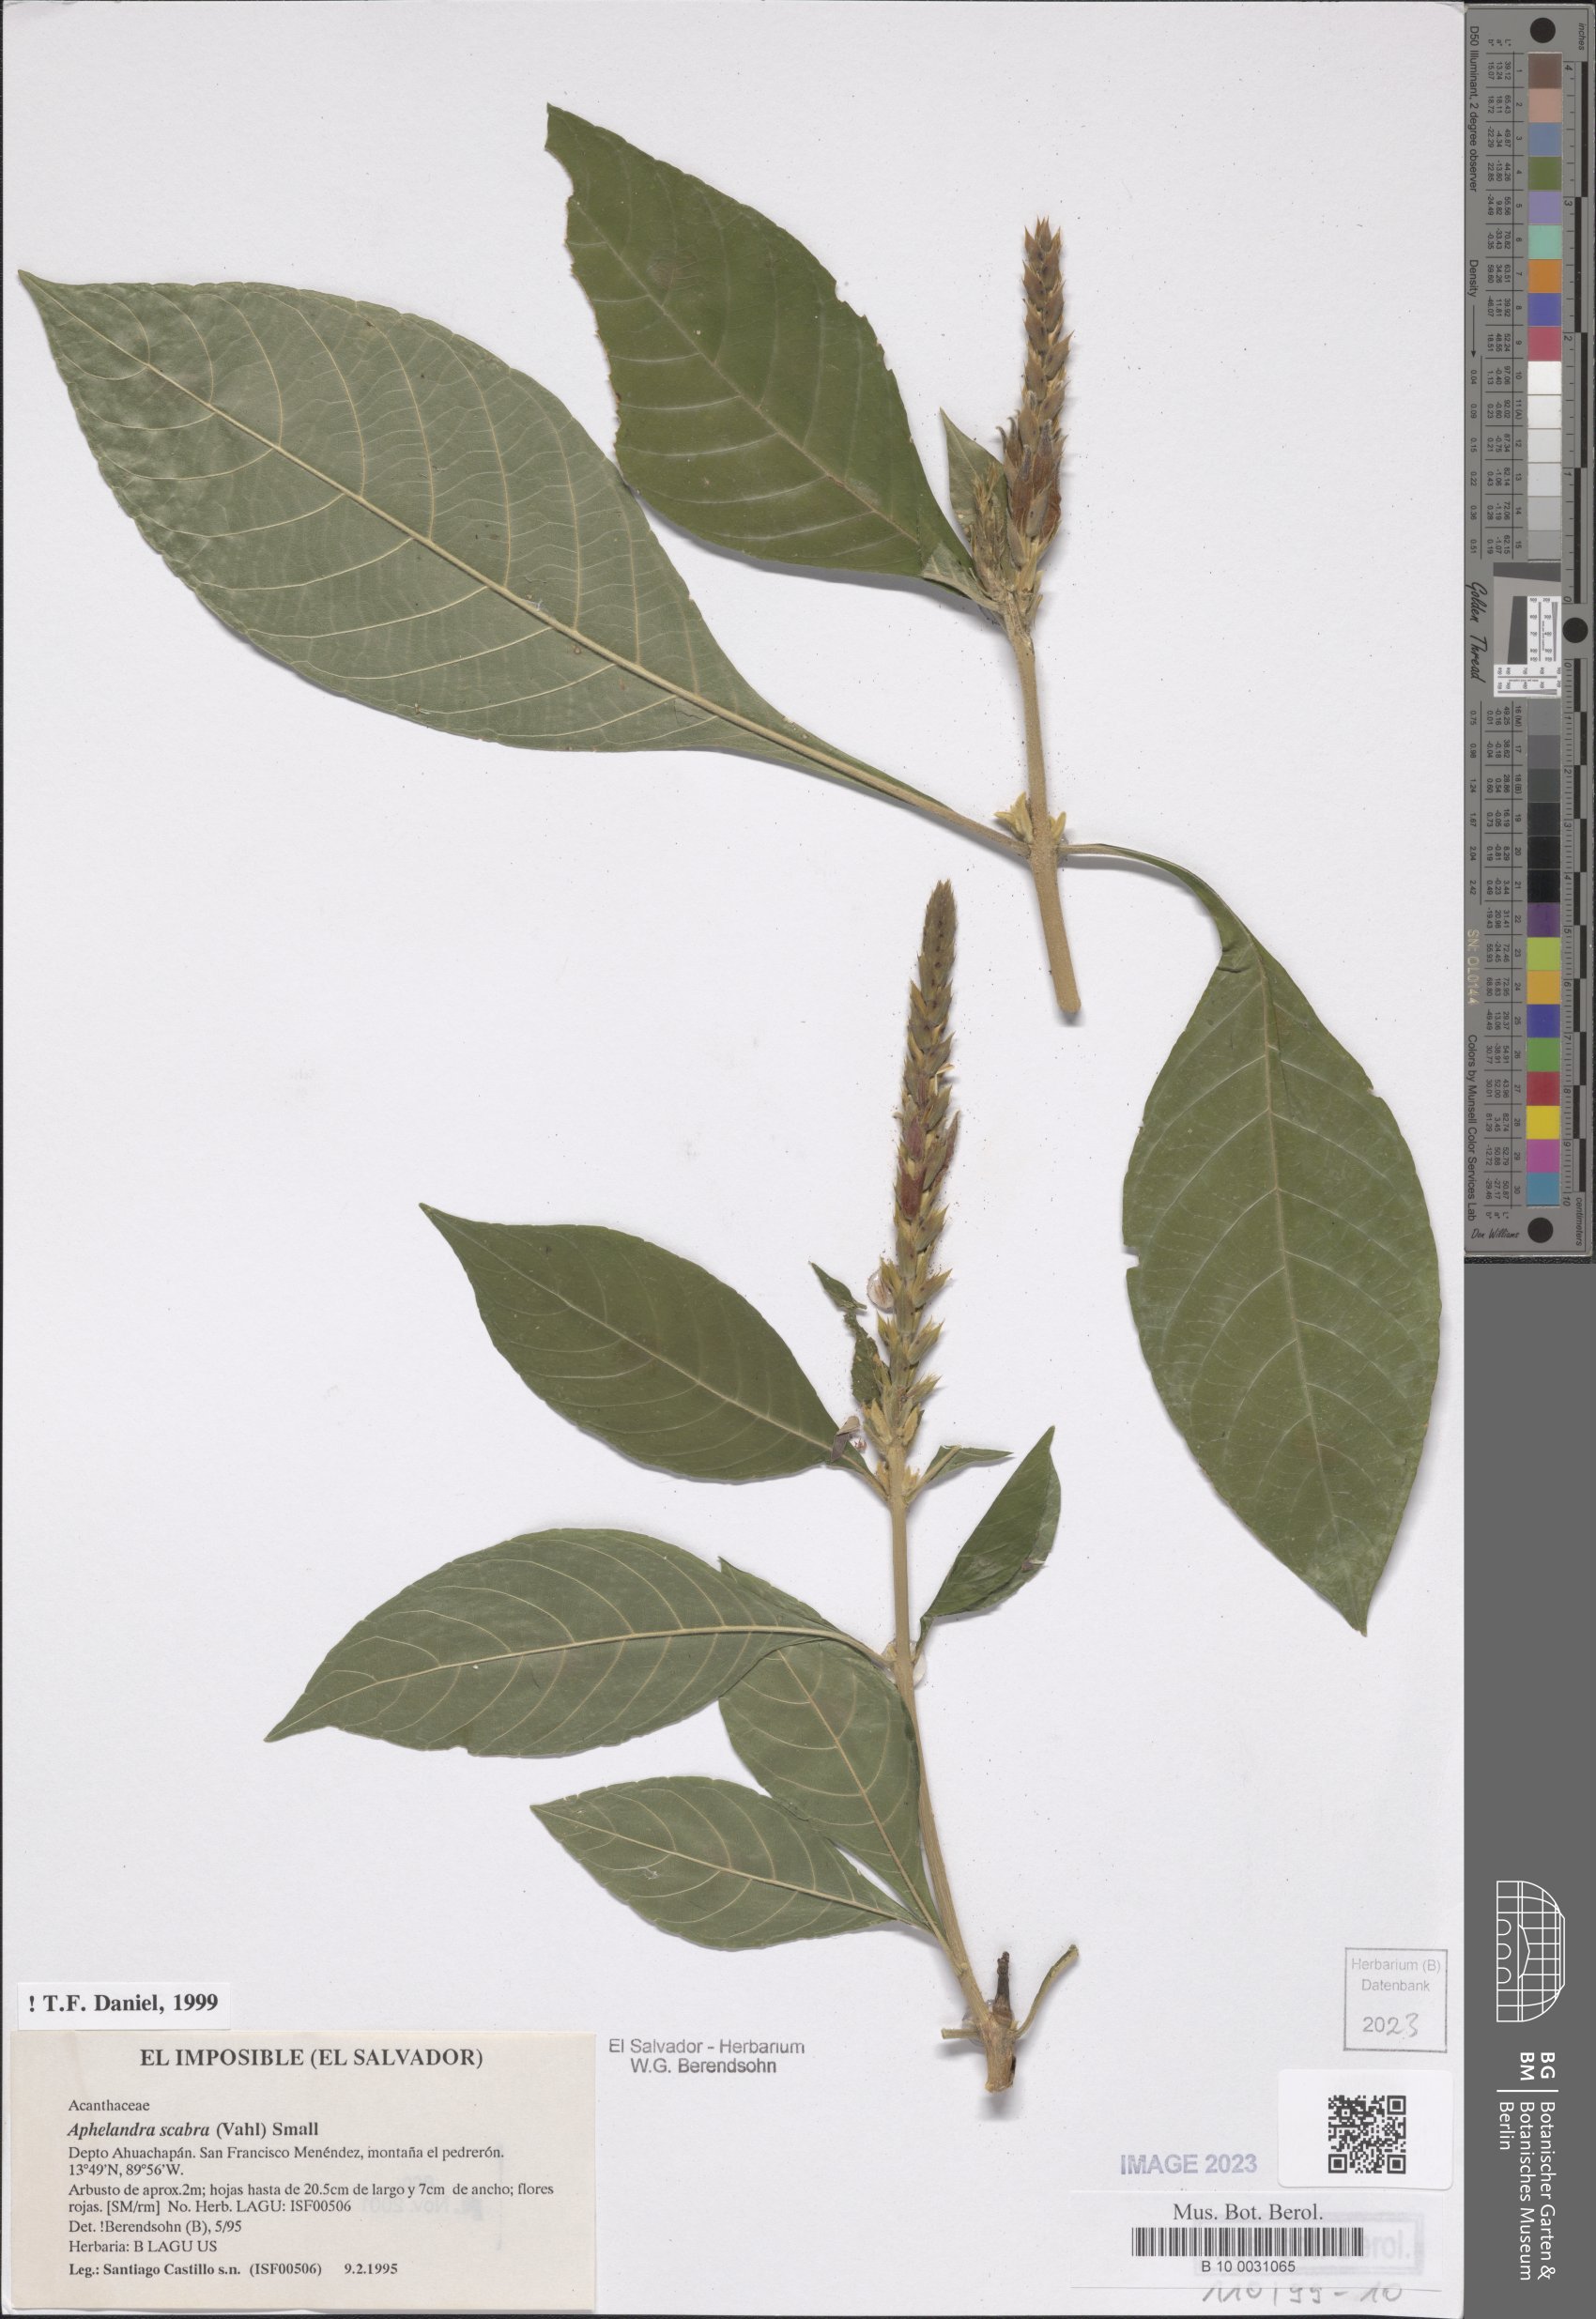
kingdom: Plantae
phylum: Tracheophyta
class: Magnoliopsida
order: Lamiales
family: Acanthaceae
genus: Aphelandra
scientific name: Aphelandra scabra
